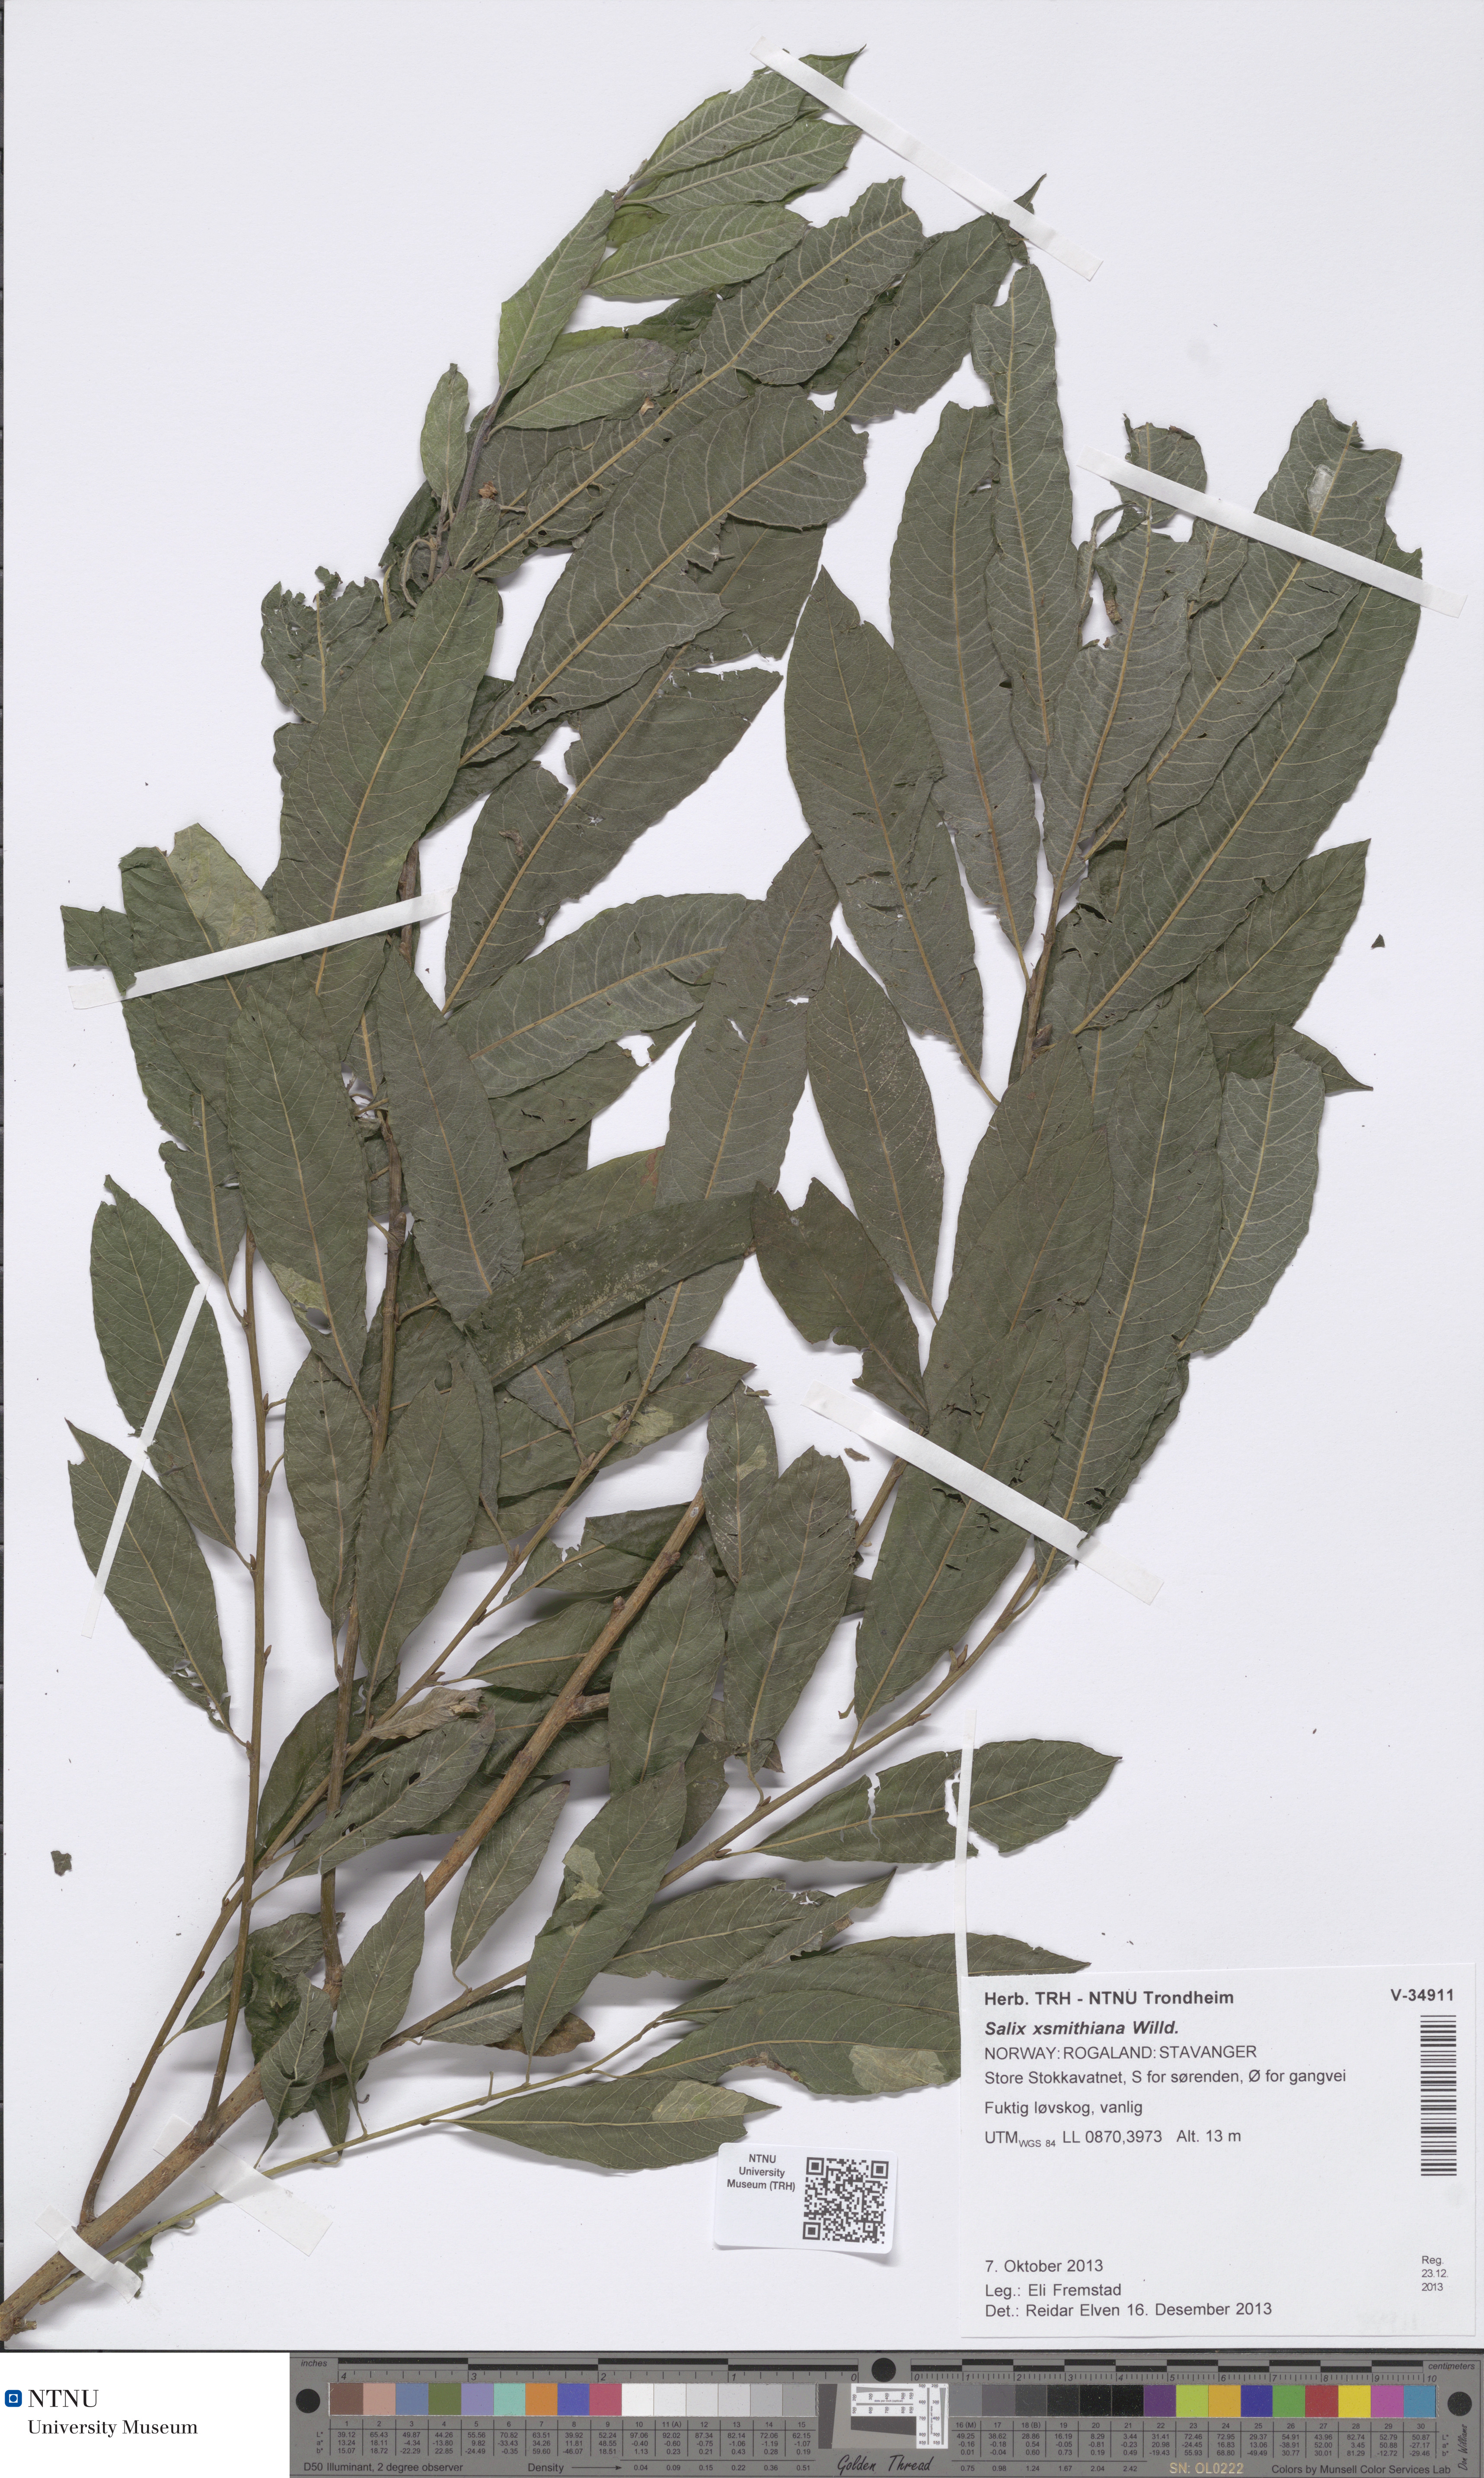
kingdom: Plantae
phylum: Tracheophyta
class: Magnoliopsida
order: Malpighiales
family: Salicaceae
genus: Salix
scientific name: Salix smithiana
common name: Silky-leaved osier
